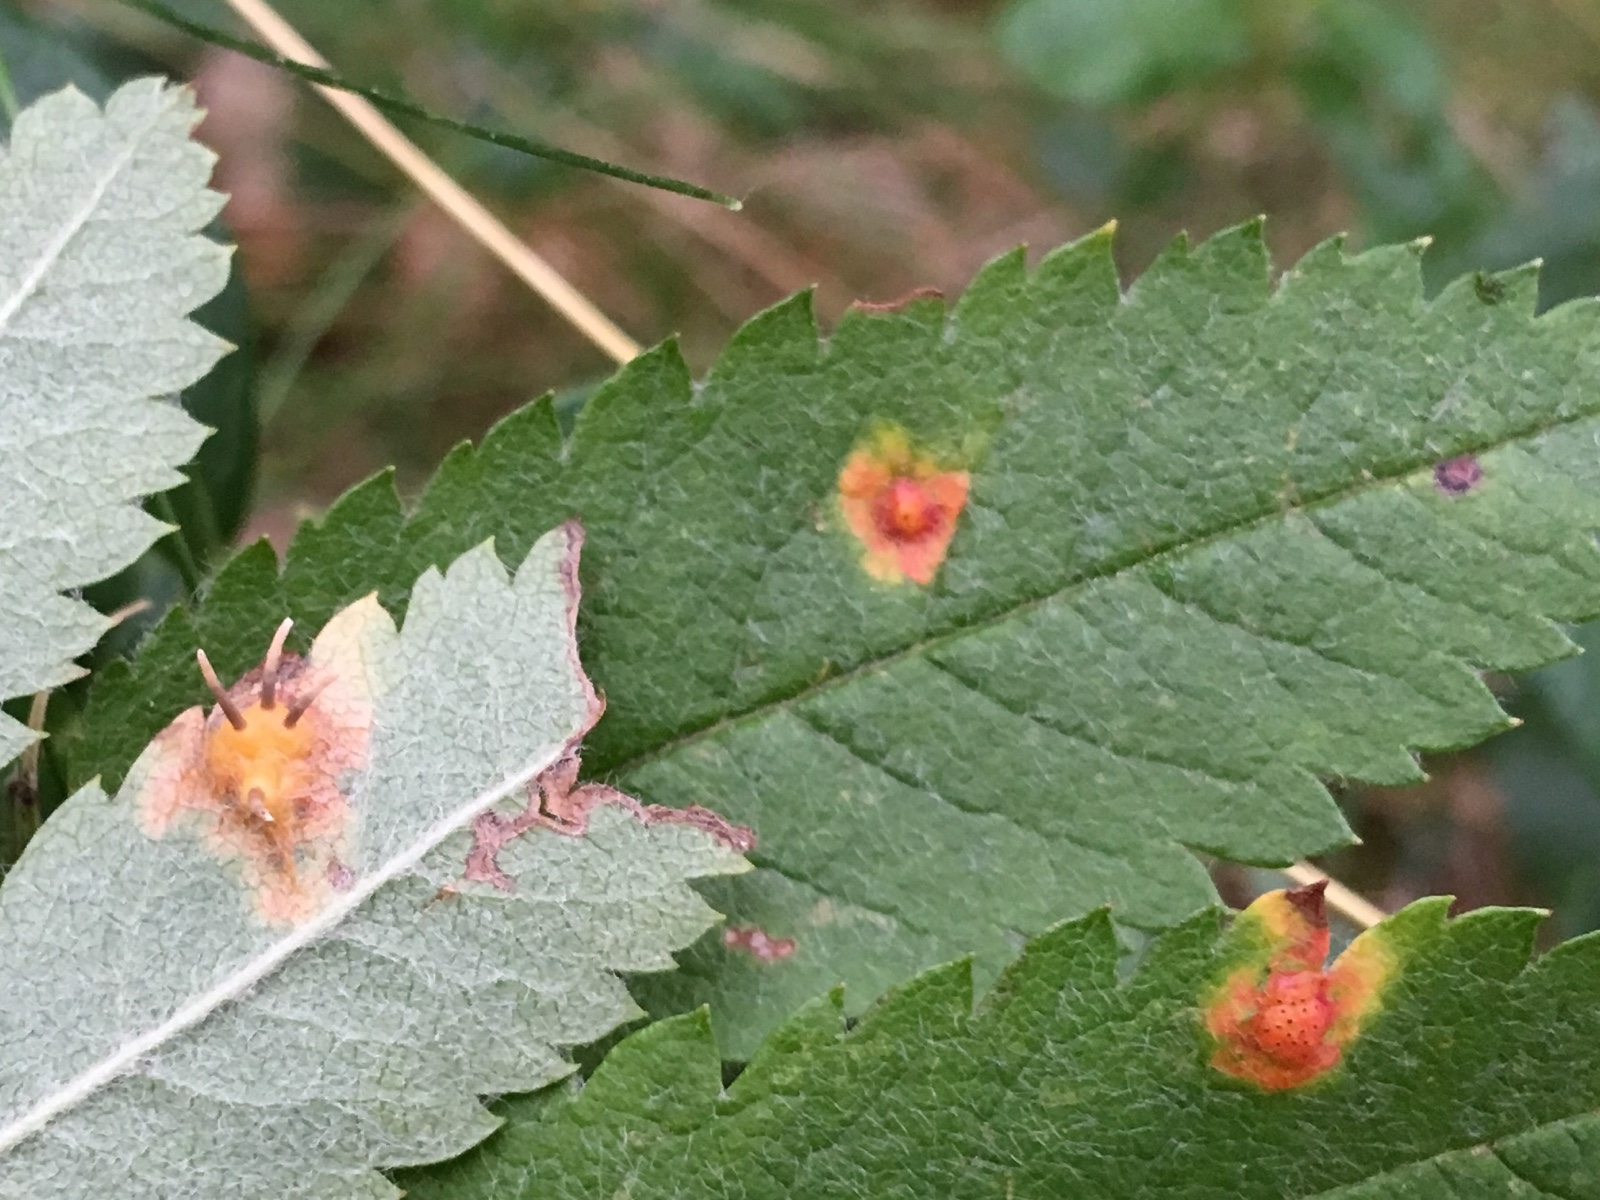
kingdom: Fungi
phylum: Basidiomycota
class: Pucciniomycetes
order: Pucciniales
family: Gymnosporangiaceae
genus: Gymnosporangium
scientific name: Gymnosporangium cornutum
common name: rønnehorn-bævrerust
